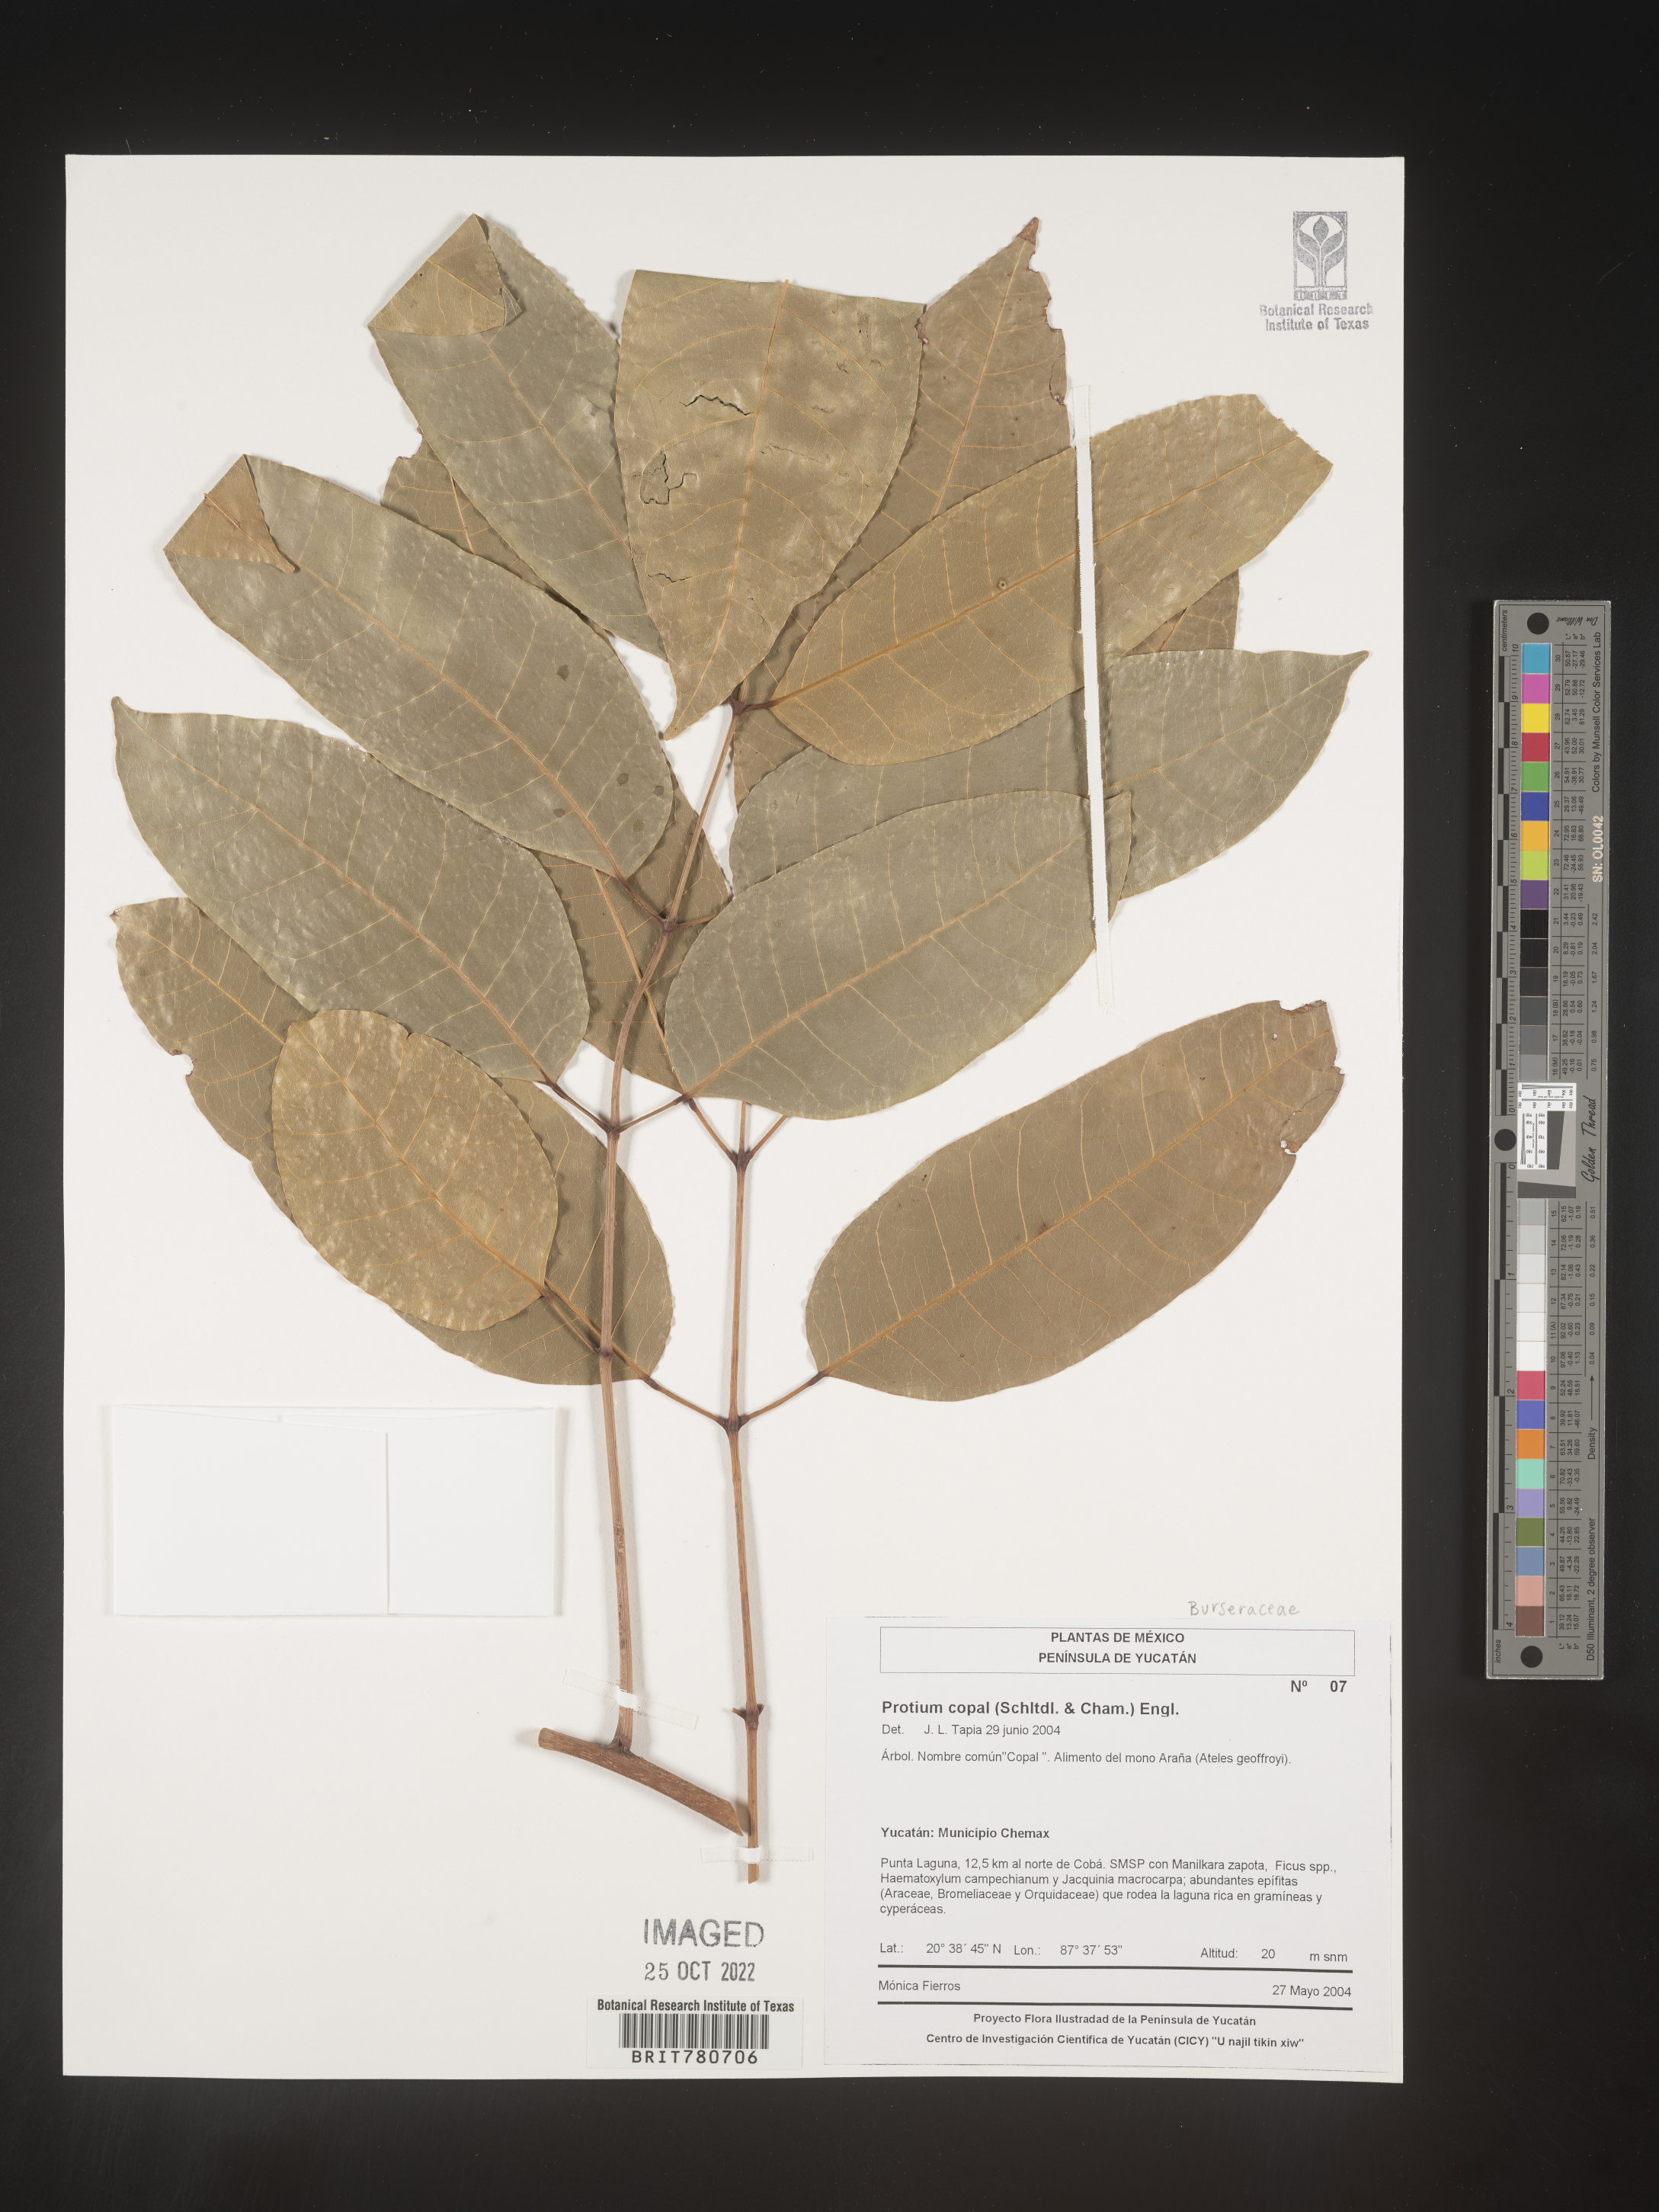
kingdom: Plantae
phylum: Tracheophyta
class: Magnoliopsida
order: Sapindales
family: Burseraceae
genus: Protium
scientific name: Protium
